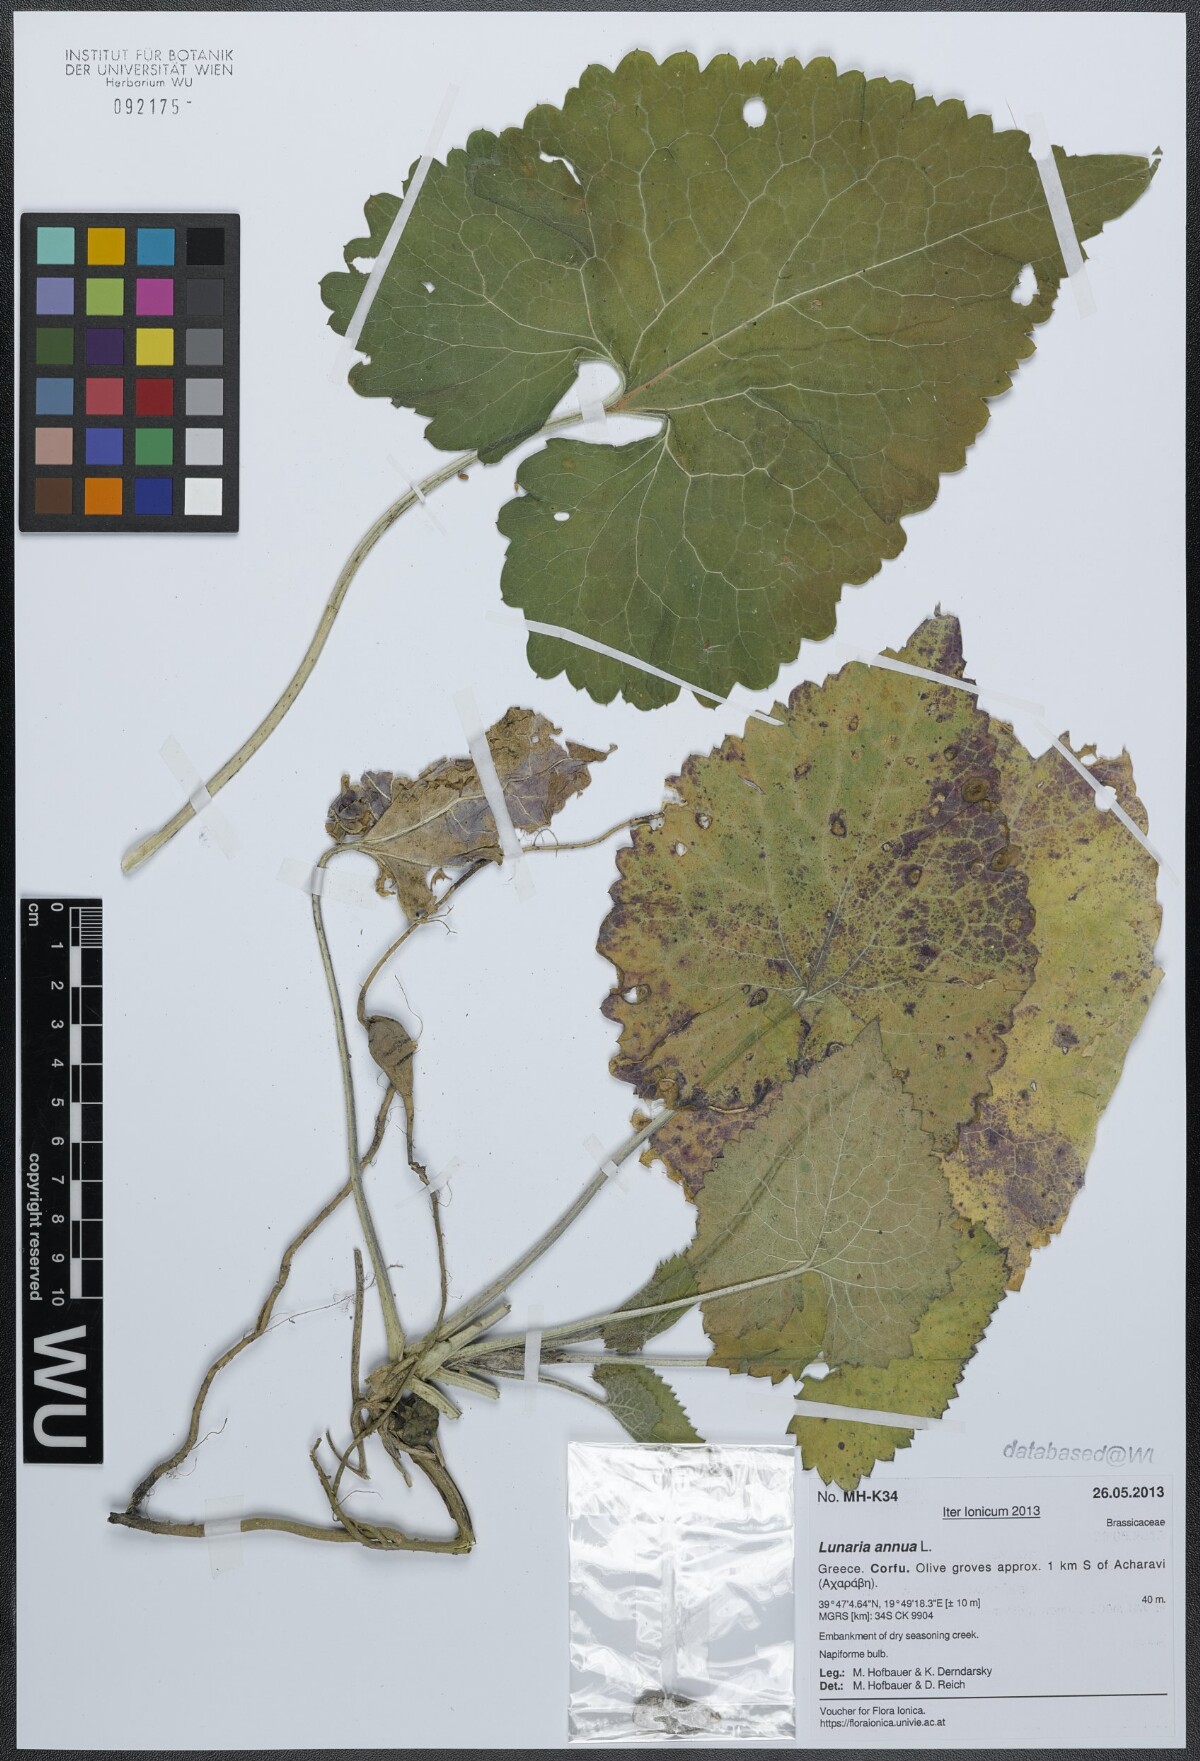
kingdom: Plantae
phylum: Tracheophyta
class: Magnoliopsida
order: Brassicales
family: Brassicaceae
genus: Lunaria
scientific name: Lunaria annua
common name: Honesty
